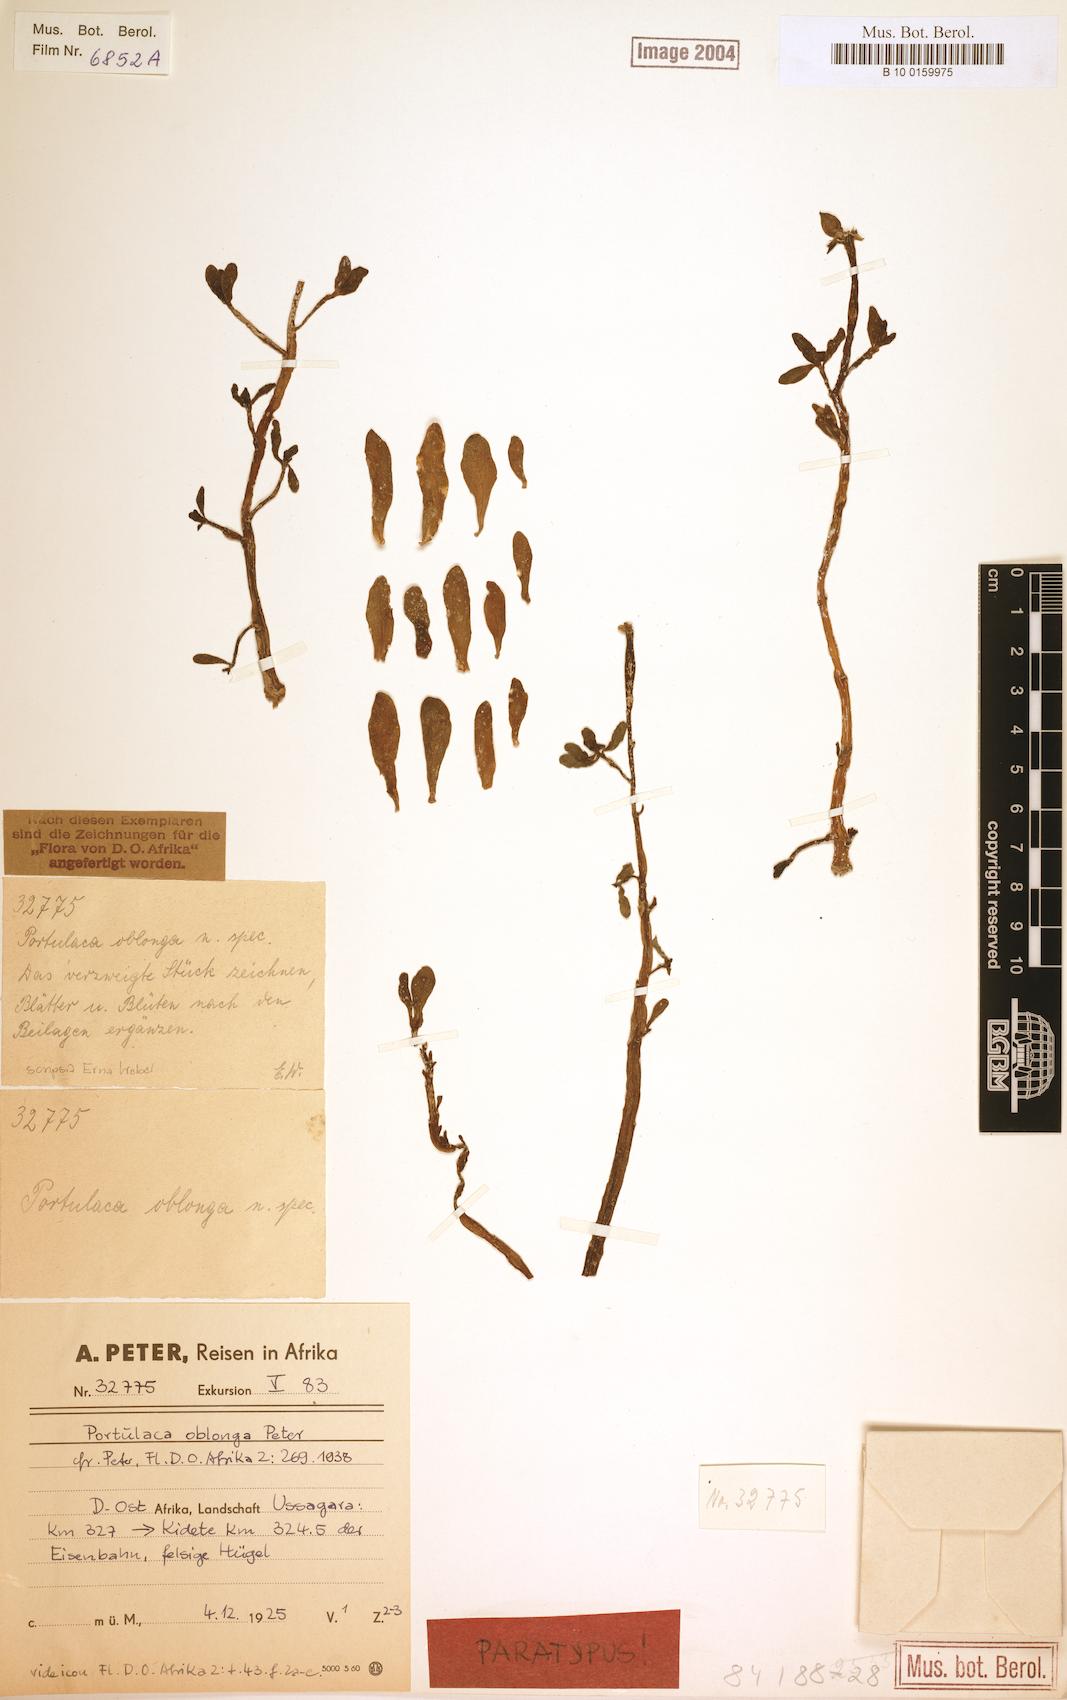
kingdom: Plantae
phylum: Tracheophyta
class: Magnoliopsida
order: Caryophyllales
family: Portulacaceae
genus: Portulaca
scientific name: Portulaca oblonga
